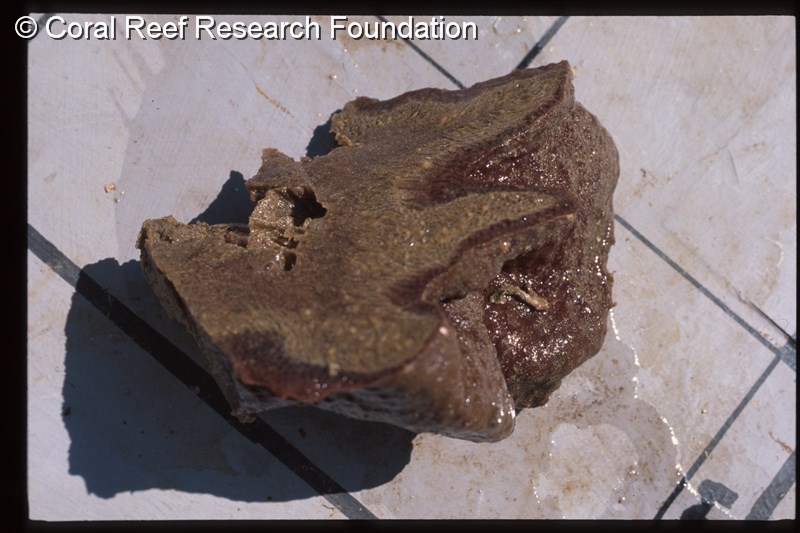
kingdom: Animalia
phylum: Chordata
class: Ascidiacea
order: Aplousobranchia
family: Polycitoridae
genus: Eudistoma
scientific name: Eudistoma bituminis
